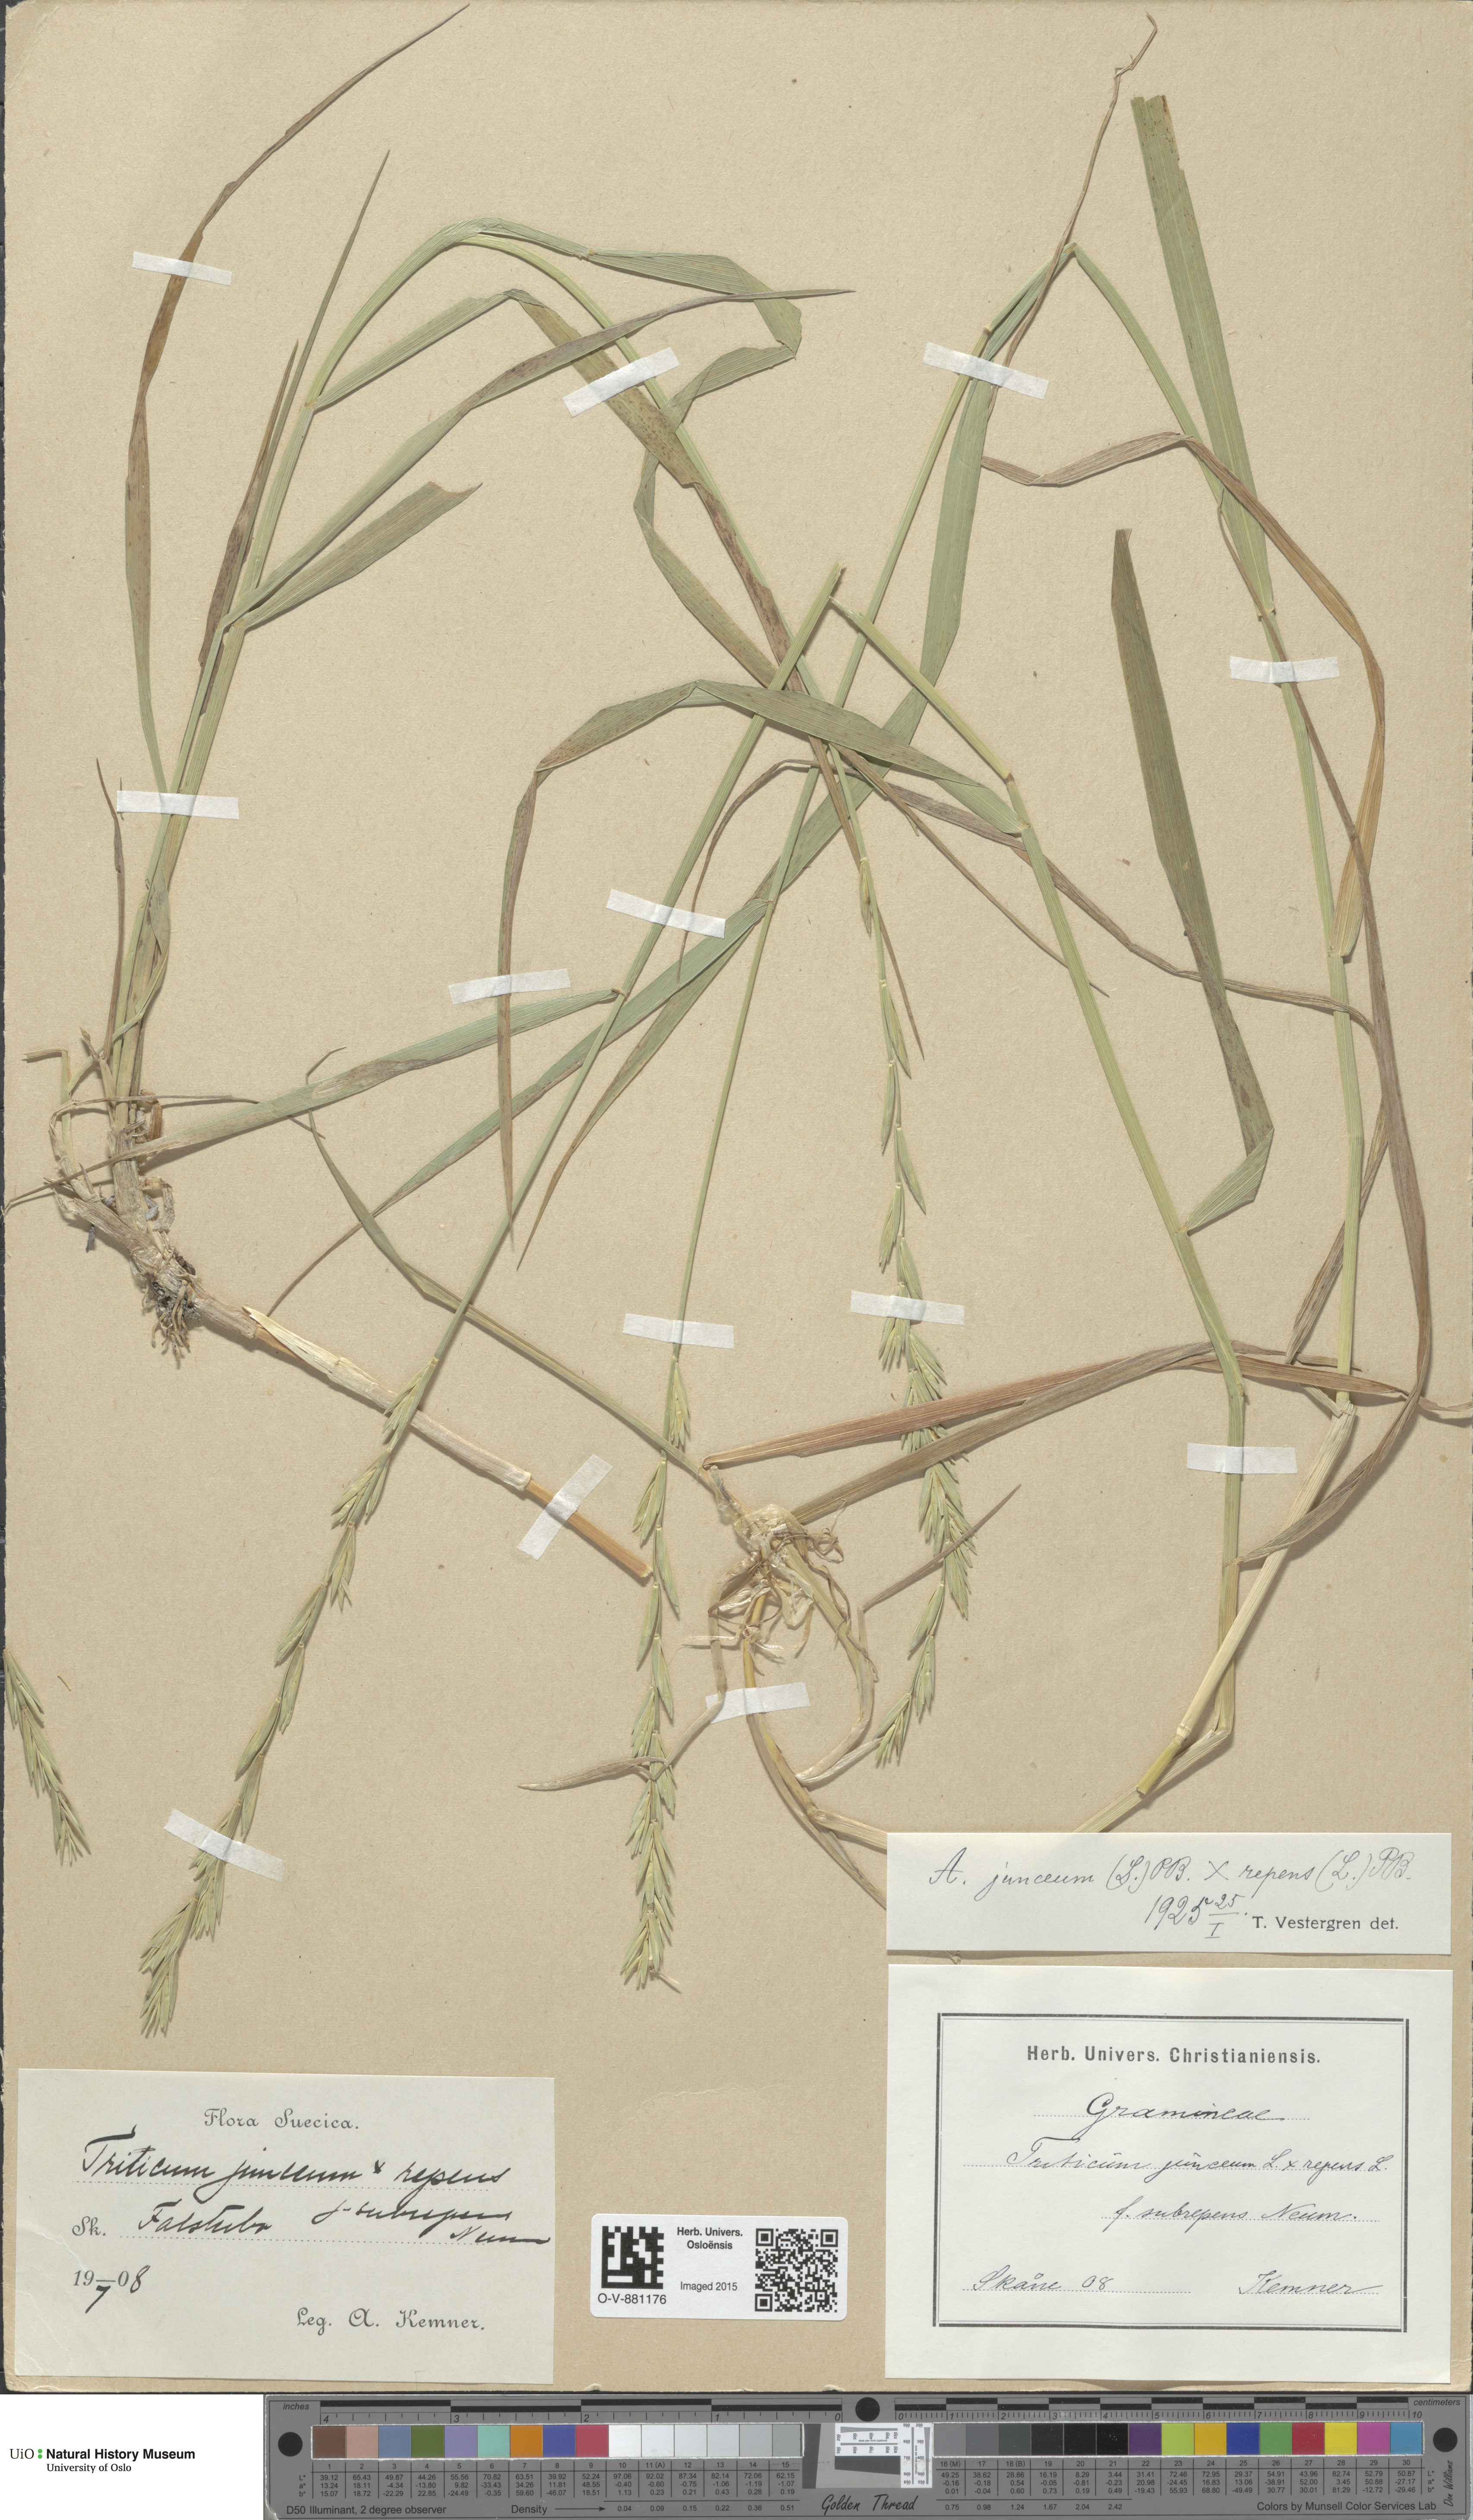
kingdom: Plantae
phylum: Tracheophyta
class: Liliopsida
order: Poales
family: Poaceae
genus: Elymus
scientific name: Elymus
